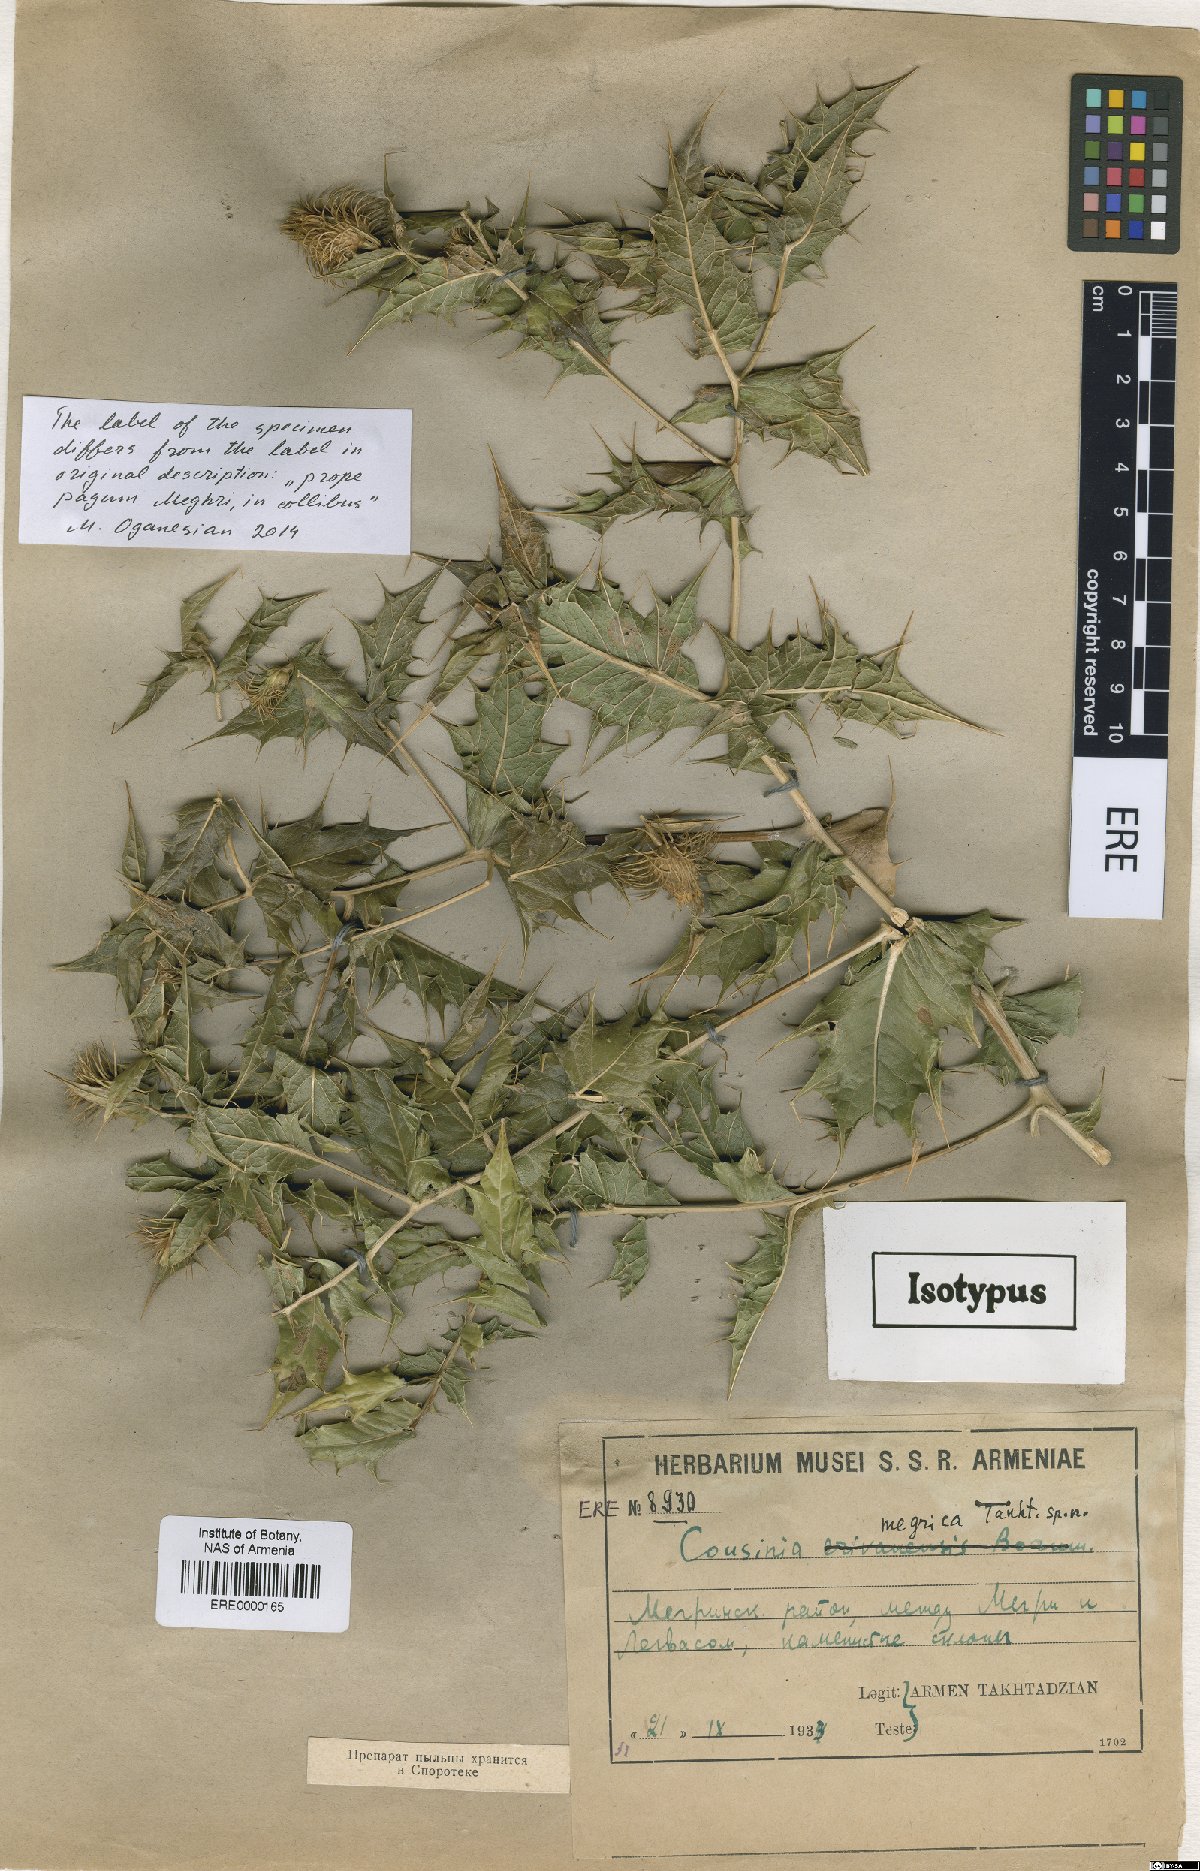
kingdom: Plantae
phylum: Tracheophyta
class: Magnoliopsida
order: Asterales
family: Asteraceae
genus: Cousinia
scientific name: Cousinia meghrica
